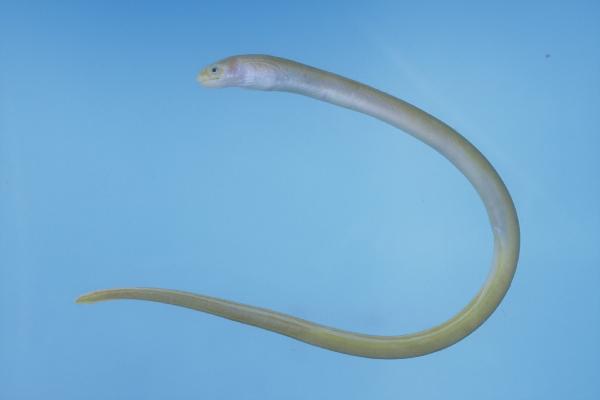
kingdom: Animalia
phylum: Chordata
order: Anguilliformes
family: Ophichthidae
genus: Scolecenchelys
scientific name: Scolecenchelys laticaudata
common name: Pearlbelly snake-eel
